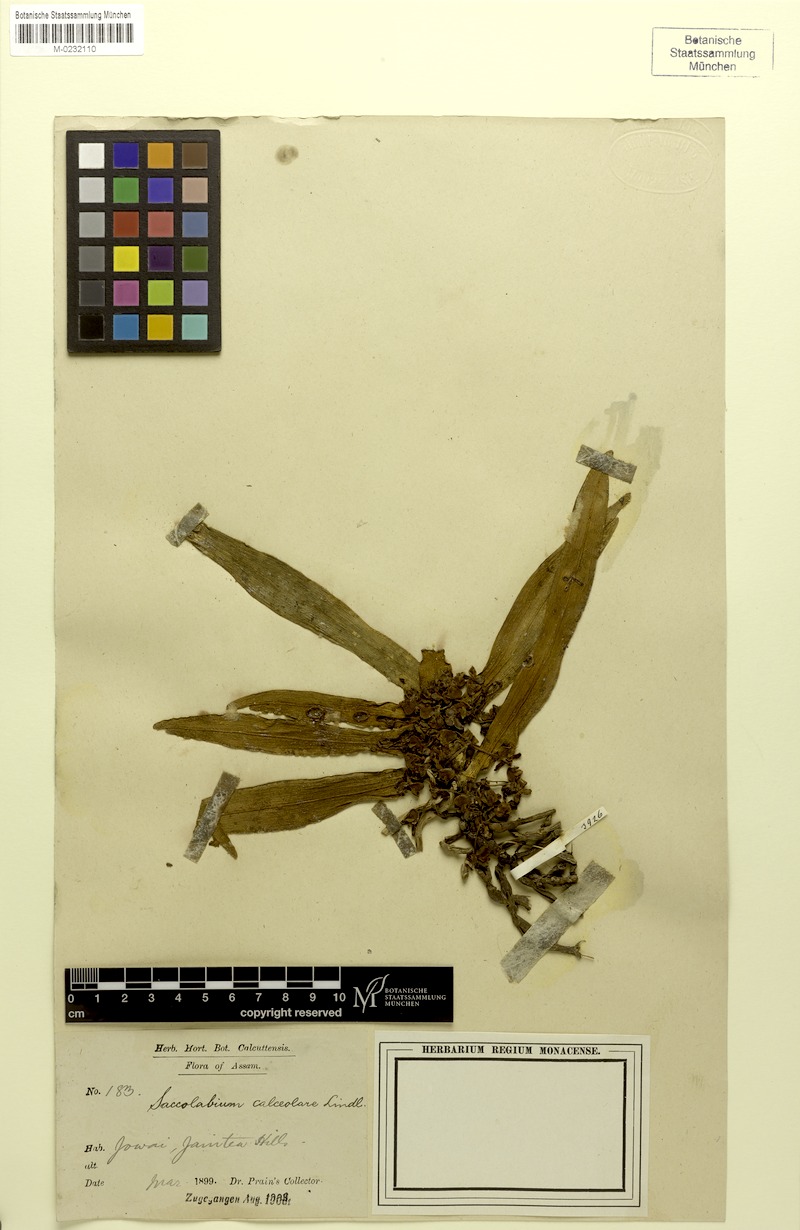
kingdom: Plantae
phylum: Tracheophyta
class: Liliopsida
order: Asparagales
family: Orchidaceae
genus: Gastrochilus
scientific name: Gastrochilus calceolaris
